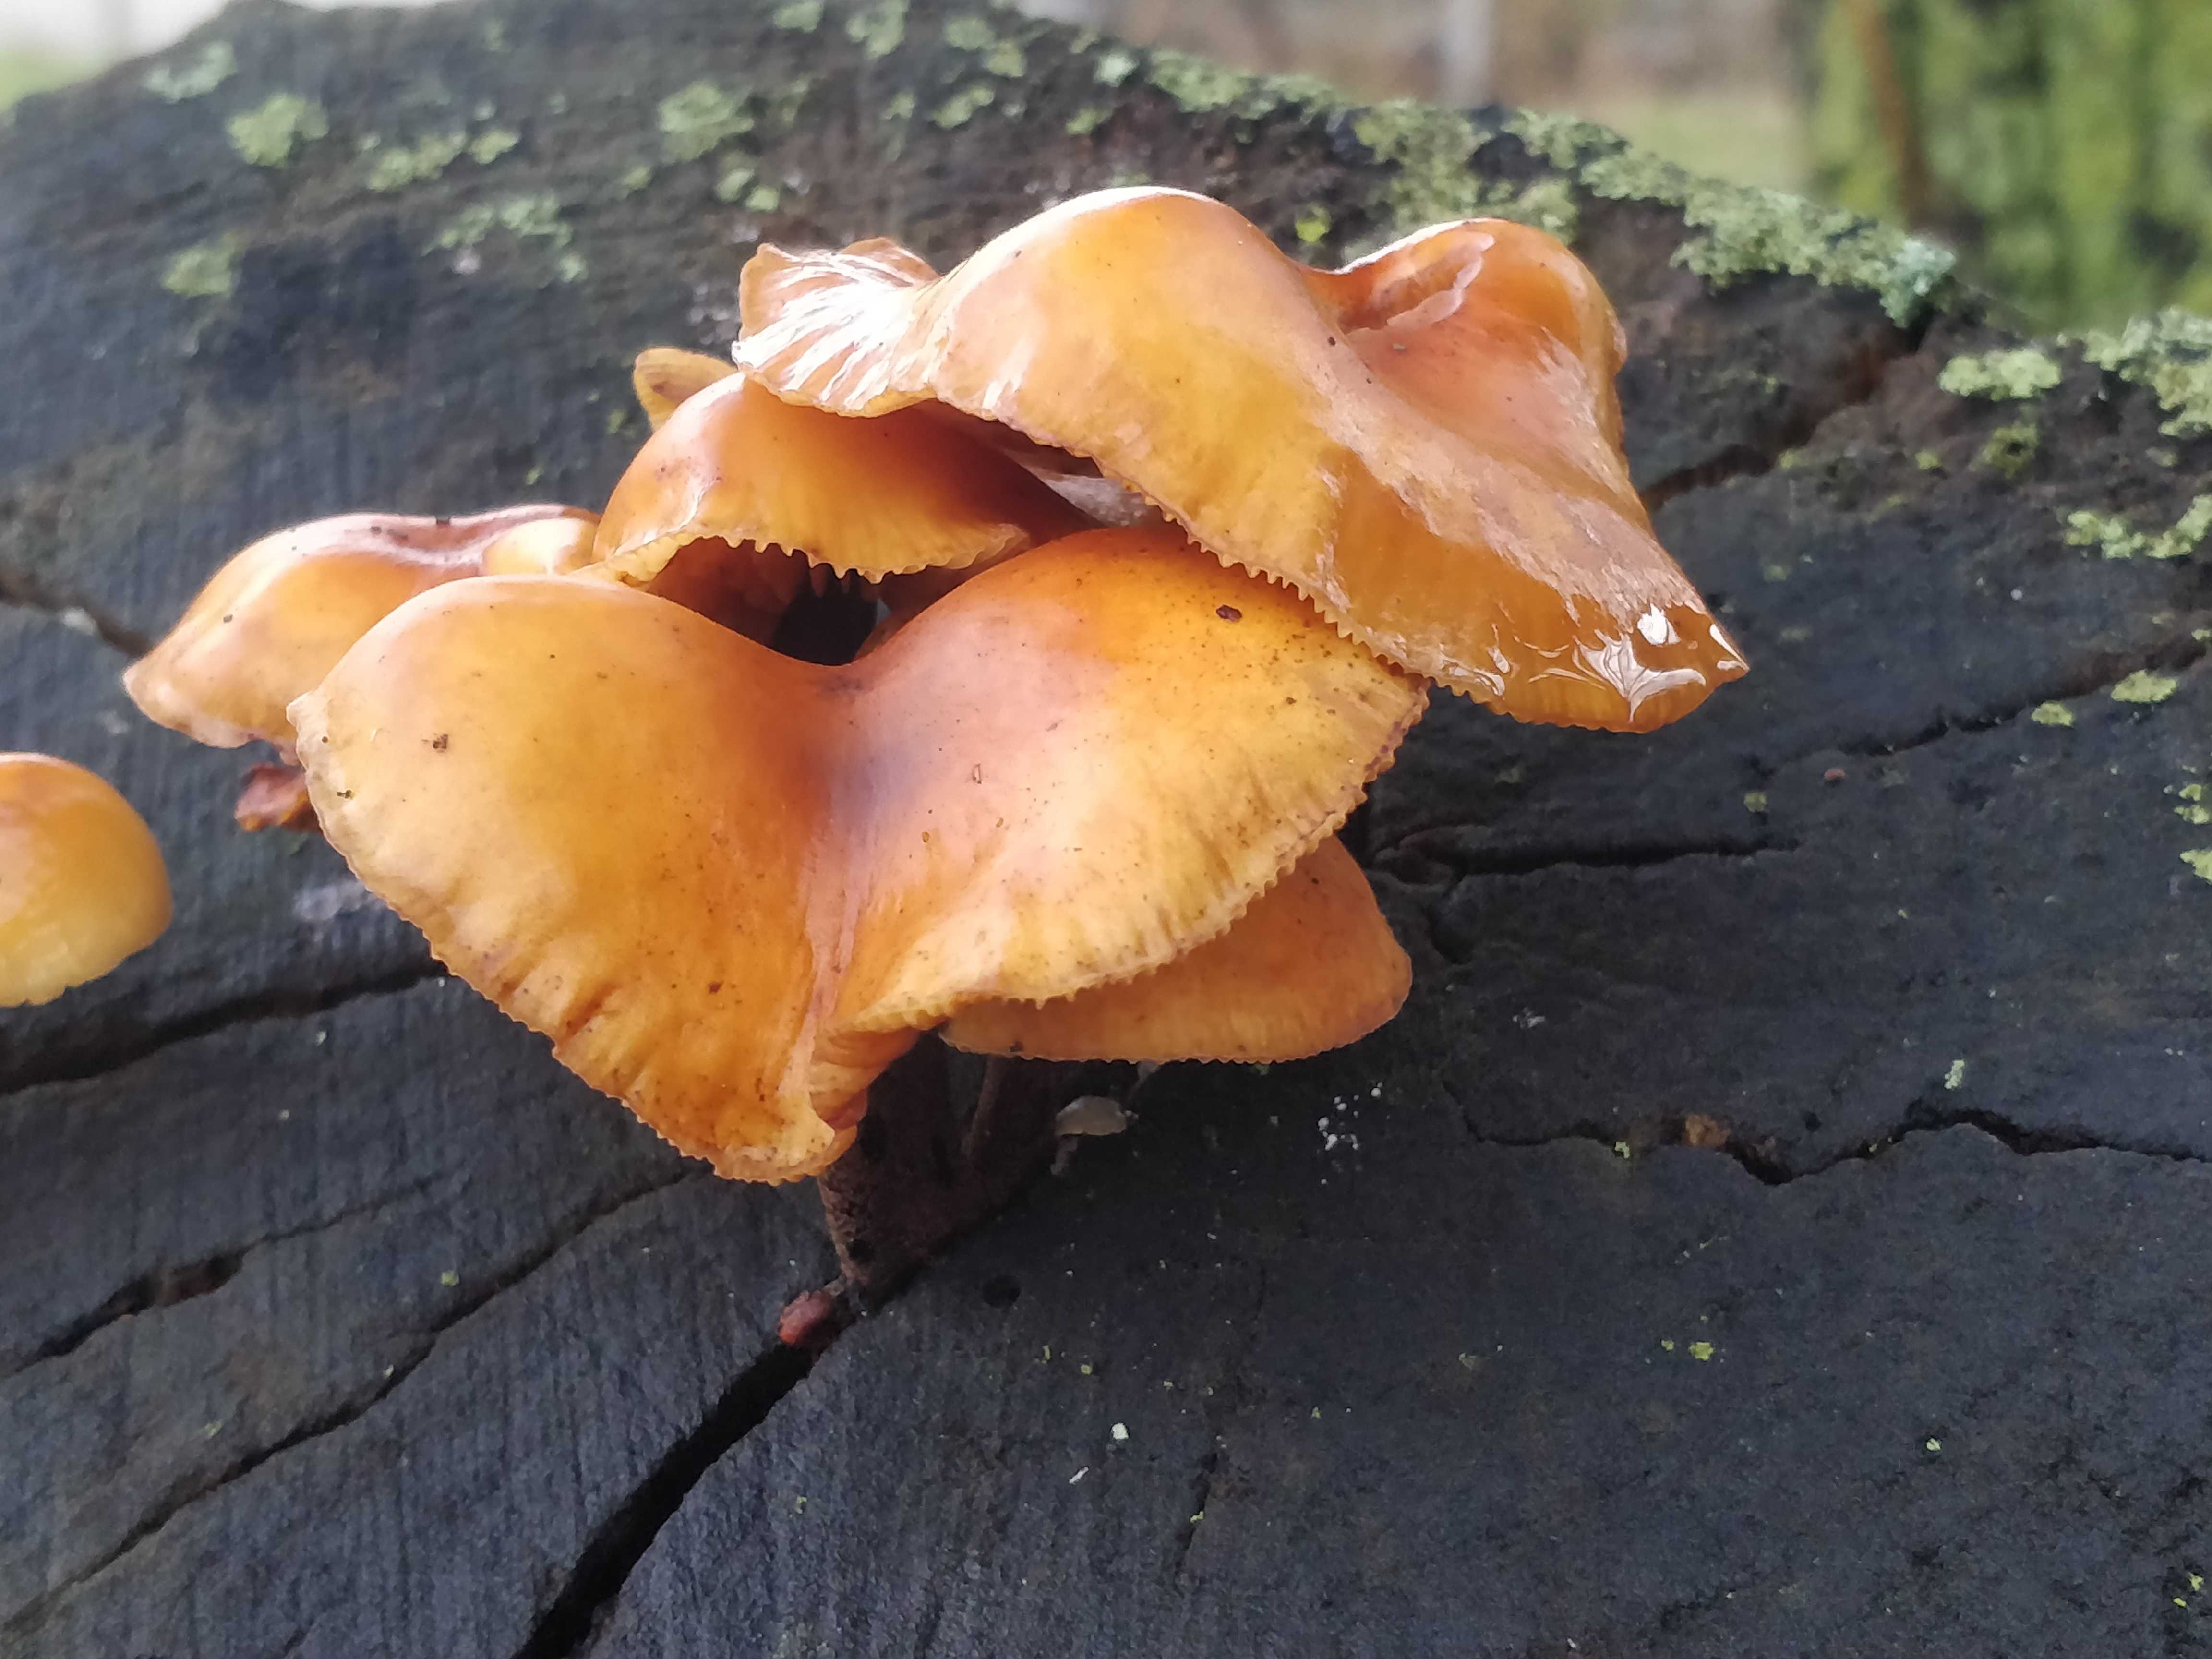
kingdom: Fungi
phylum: Basidiomycota
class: Agaricomycetes
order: Agaricales
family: Physalacriaceae
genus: Flammulina
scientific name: Flammulina
